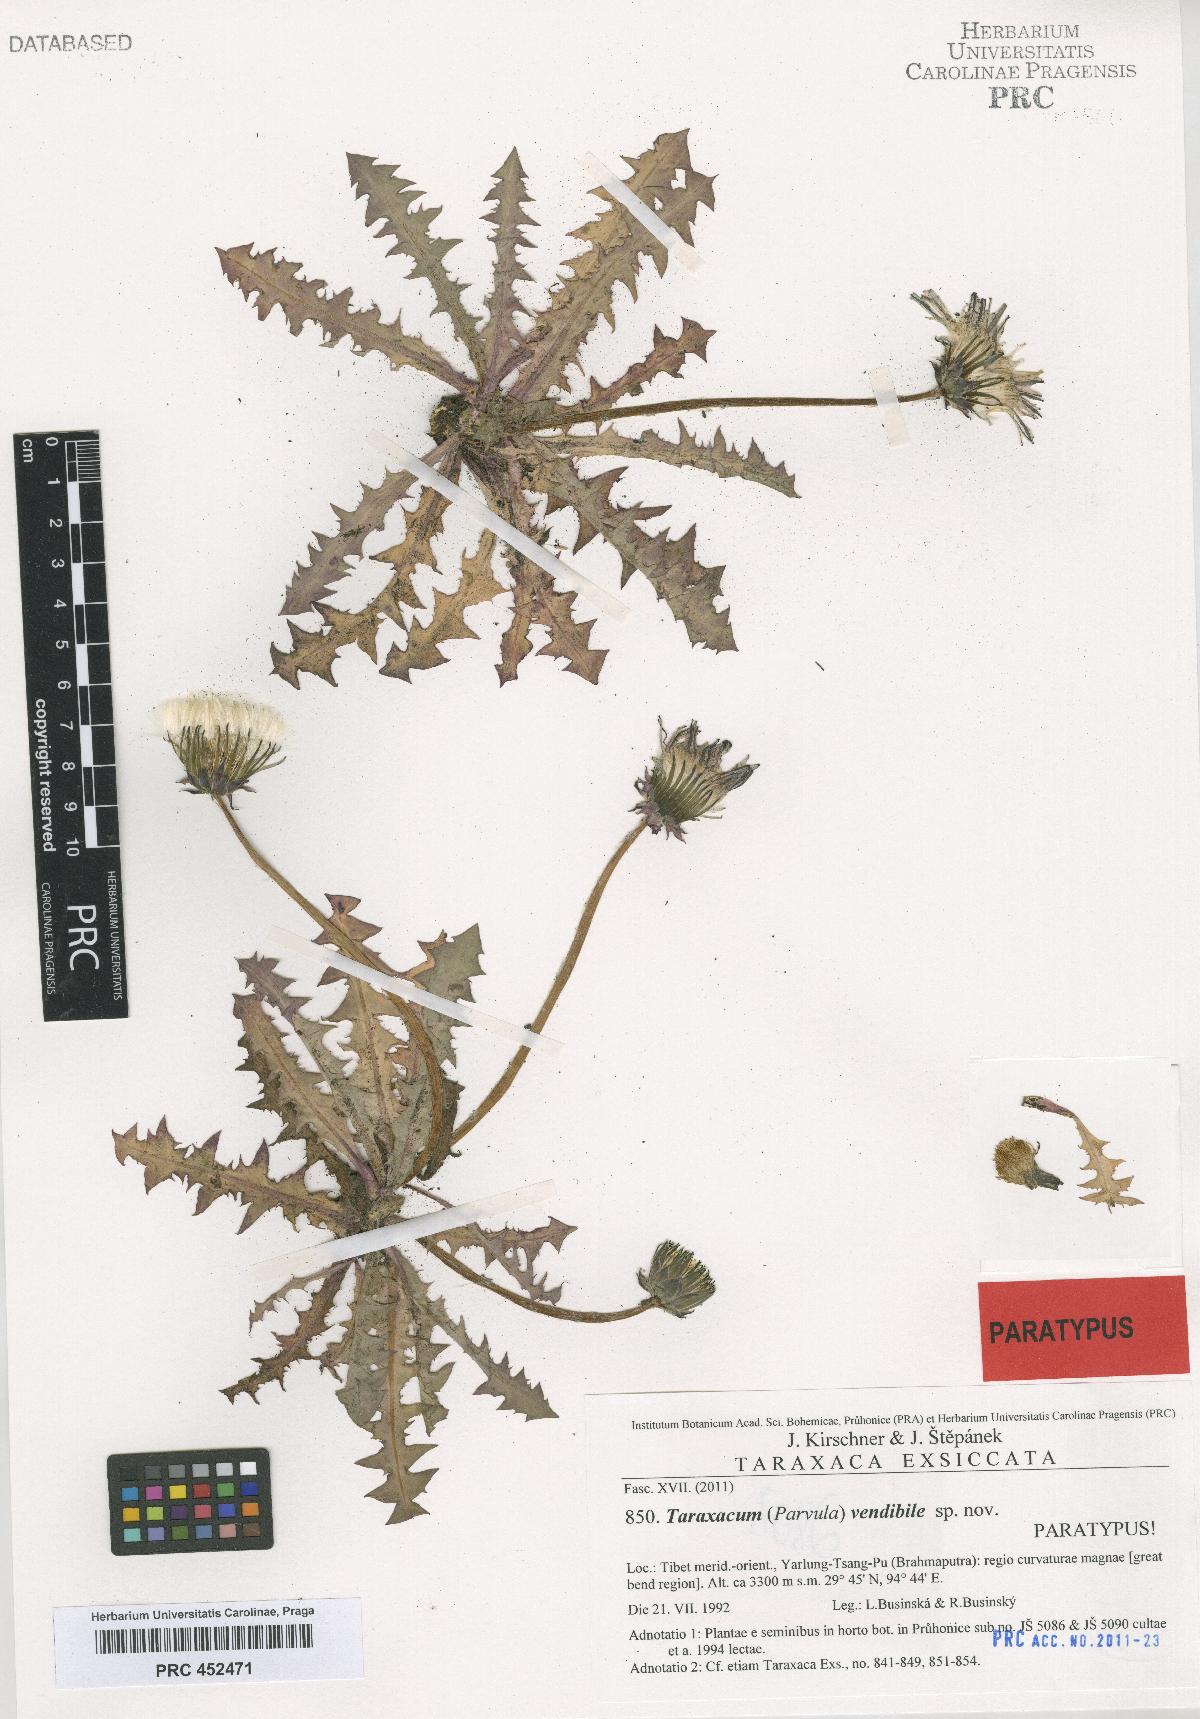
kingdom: Plantae
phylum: Tracheophyta
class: Magnoliopsida
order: Asterales
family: Asteraceae
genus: Taraxacum
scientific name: Taraxacum vendibile
